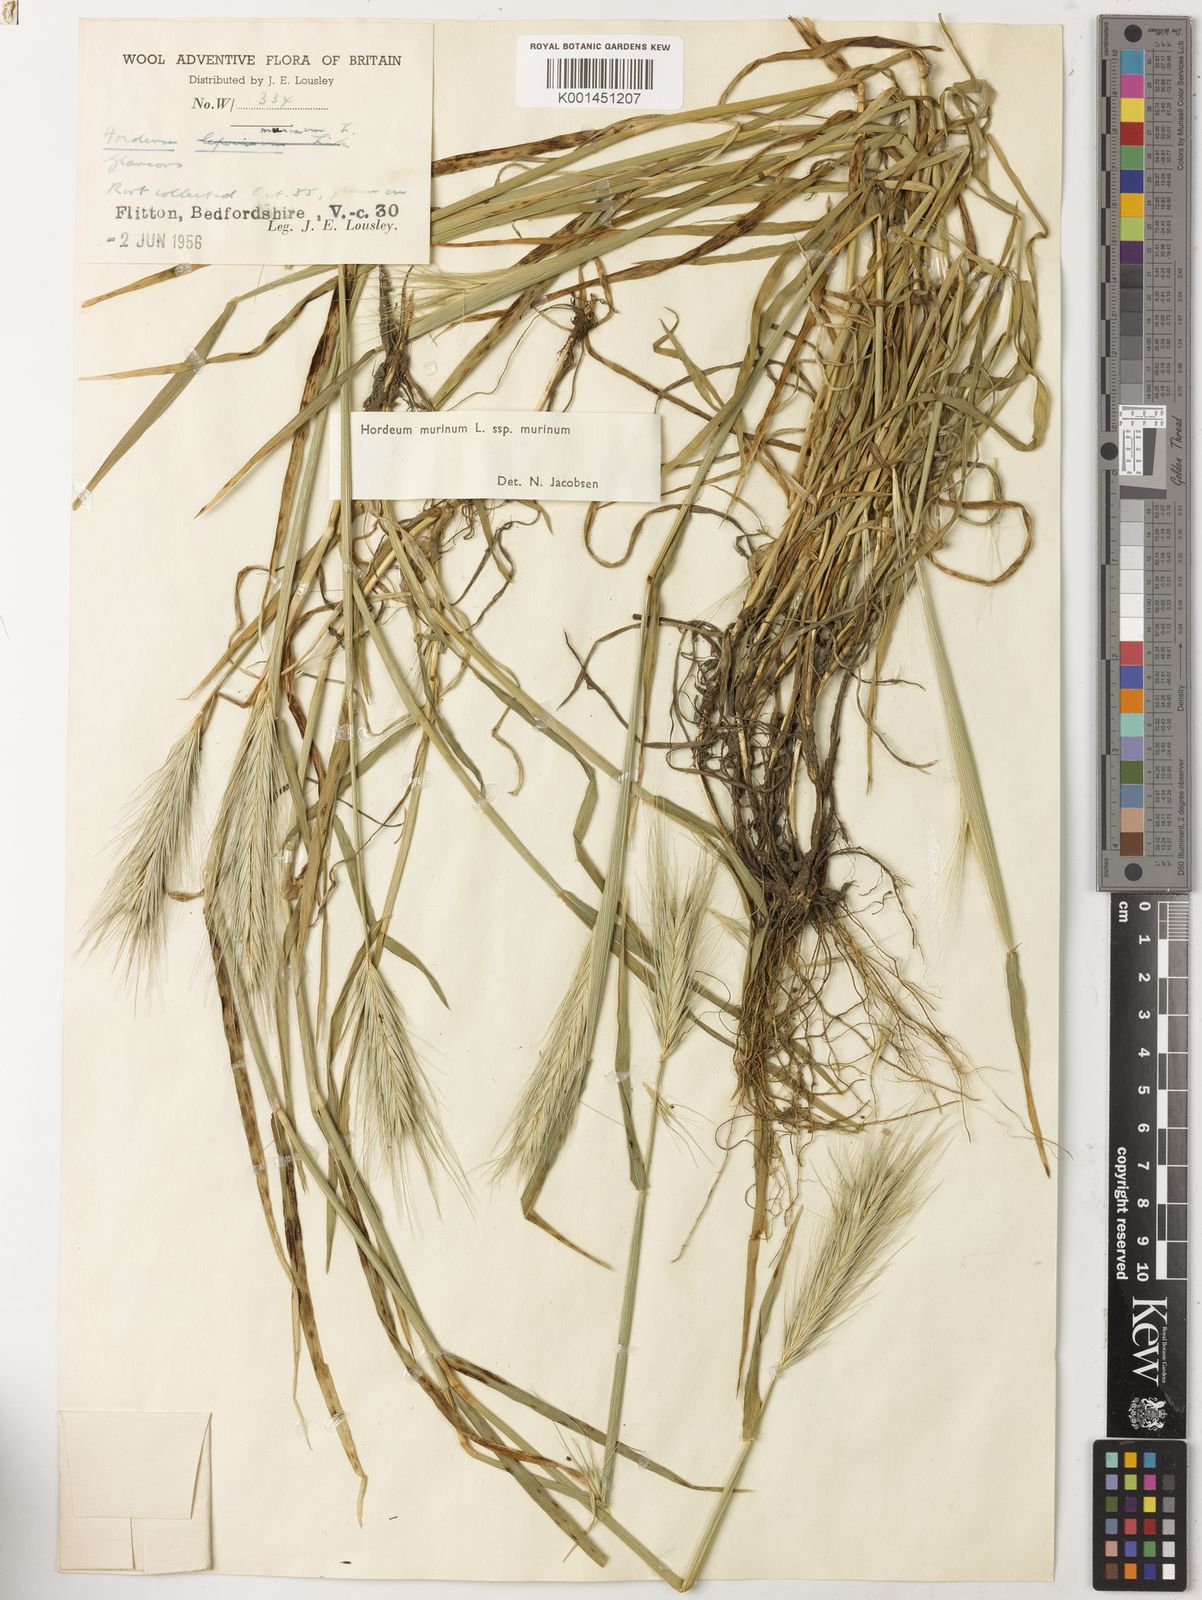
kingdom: Plantae
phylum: Tracheophyta
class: Liliopsida
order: Poales
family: Poaceae
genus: Hordeum
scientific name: Hordeum murinum
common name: Wall barley
